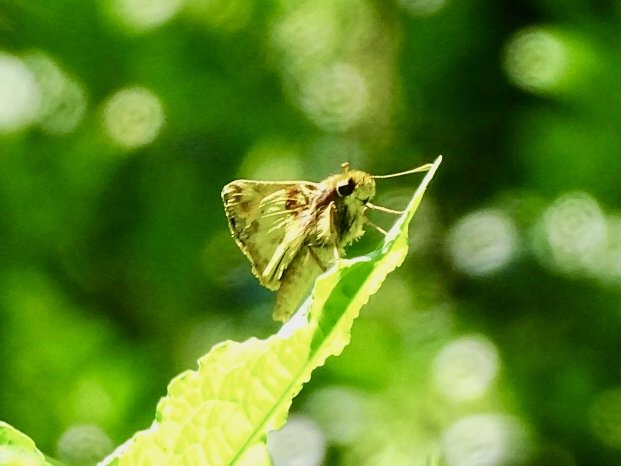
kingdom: Animalia
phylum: Arthropoda
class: Insecta
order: Lepidoptera
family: Hesperiidae
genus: Lon
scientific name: Lon zabulon
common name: Zabulon Skipper
